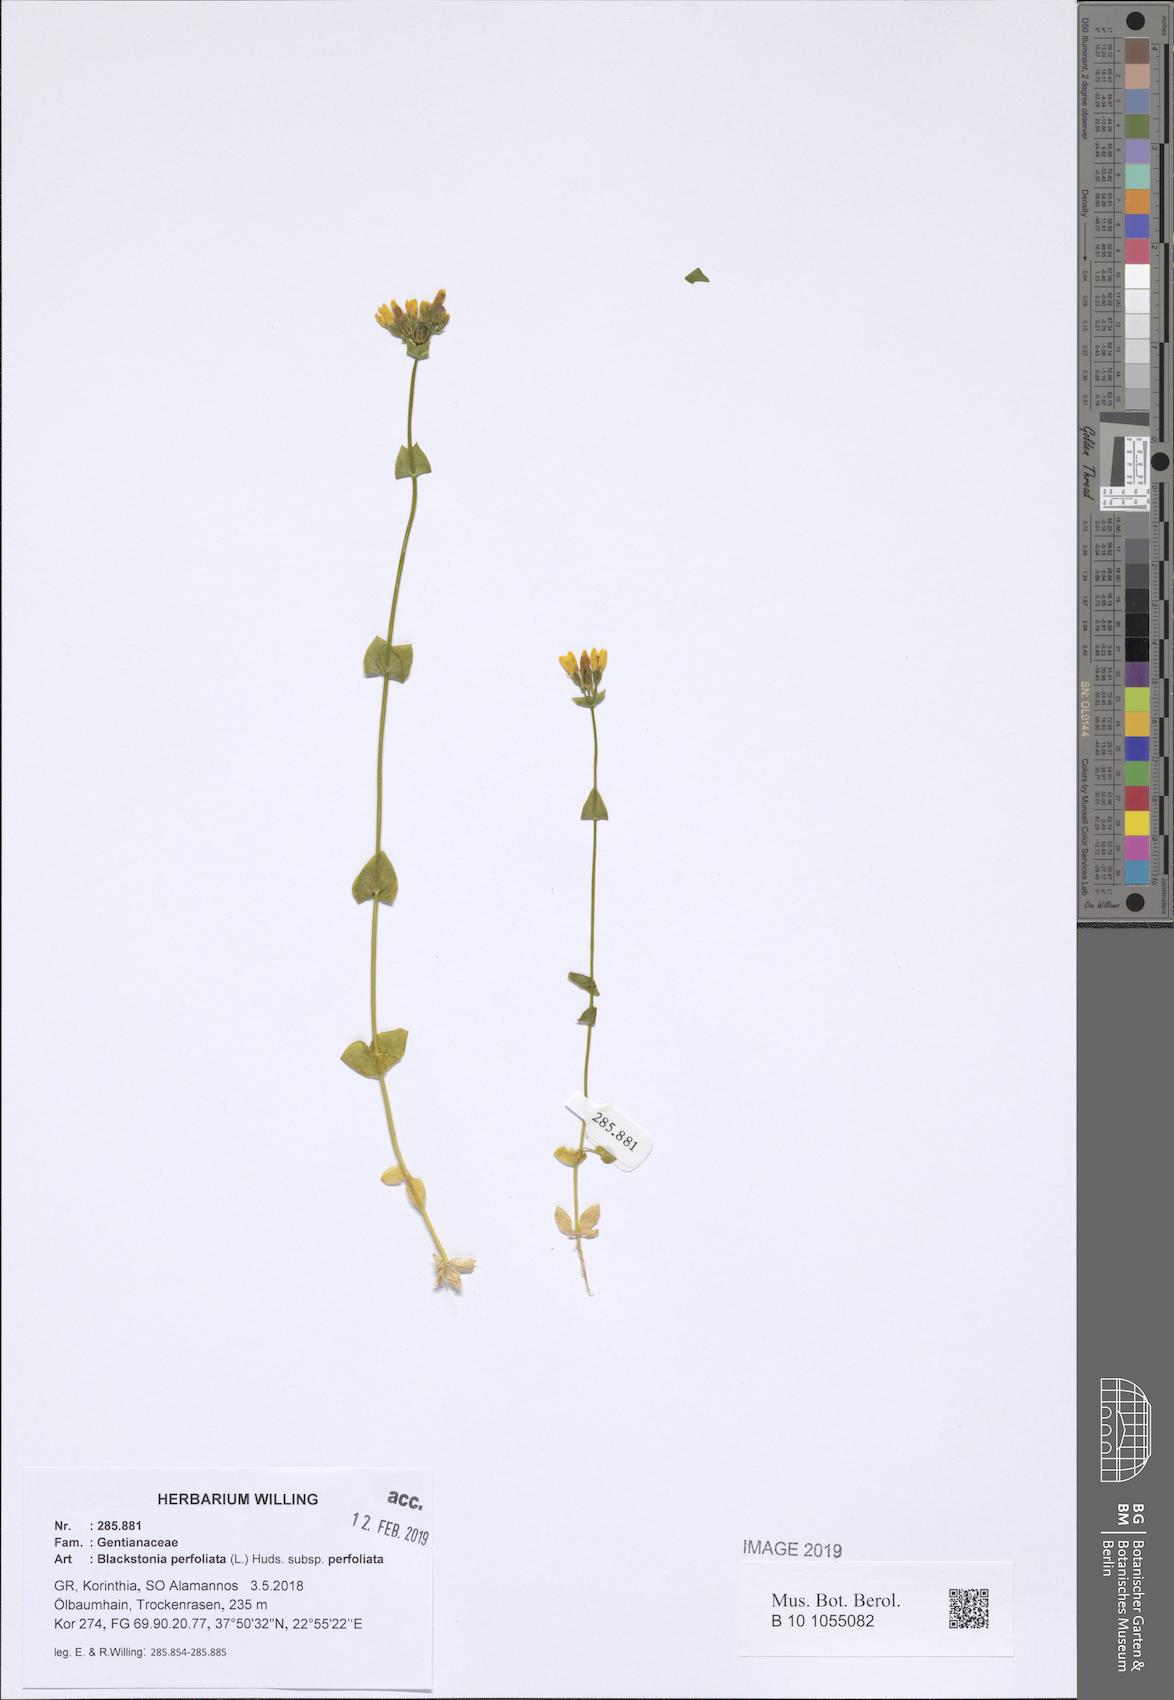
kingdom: Plantae
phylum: Tracheophyta
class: Magnoliopsida
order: Gentianales
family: Gentianaceae
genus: Blackstonia
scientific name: Blackstonia perfoliata
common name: Yellow-wort
